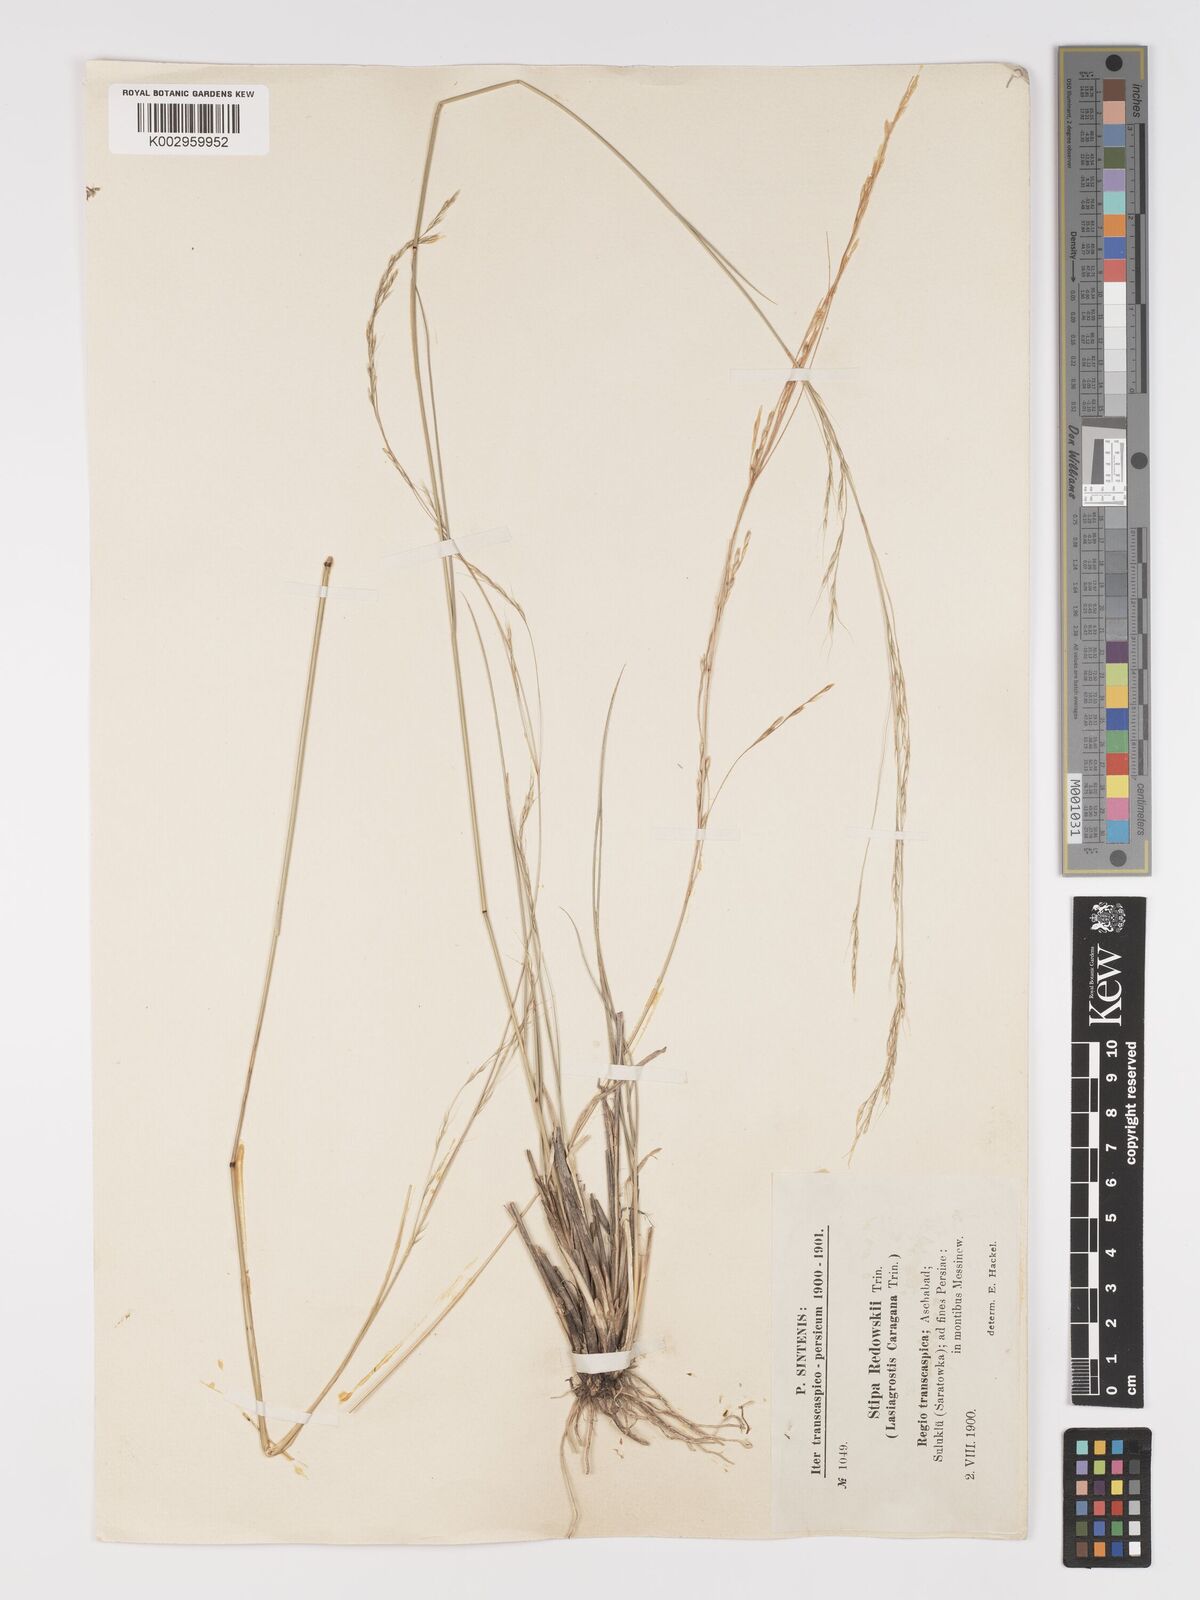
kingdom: Plantae
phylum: Tracheophyta
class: Liliopsida
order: Poales
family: Poaceae
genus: Stipa
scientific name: Stipa conferta
